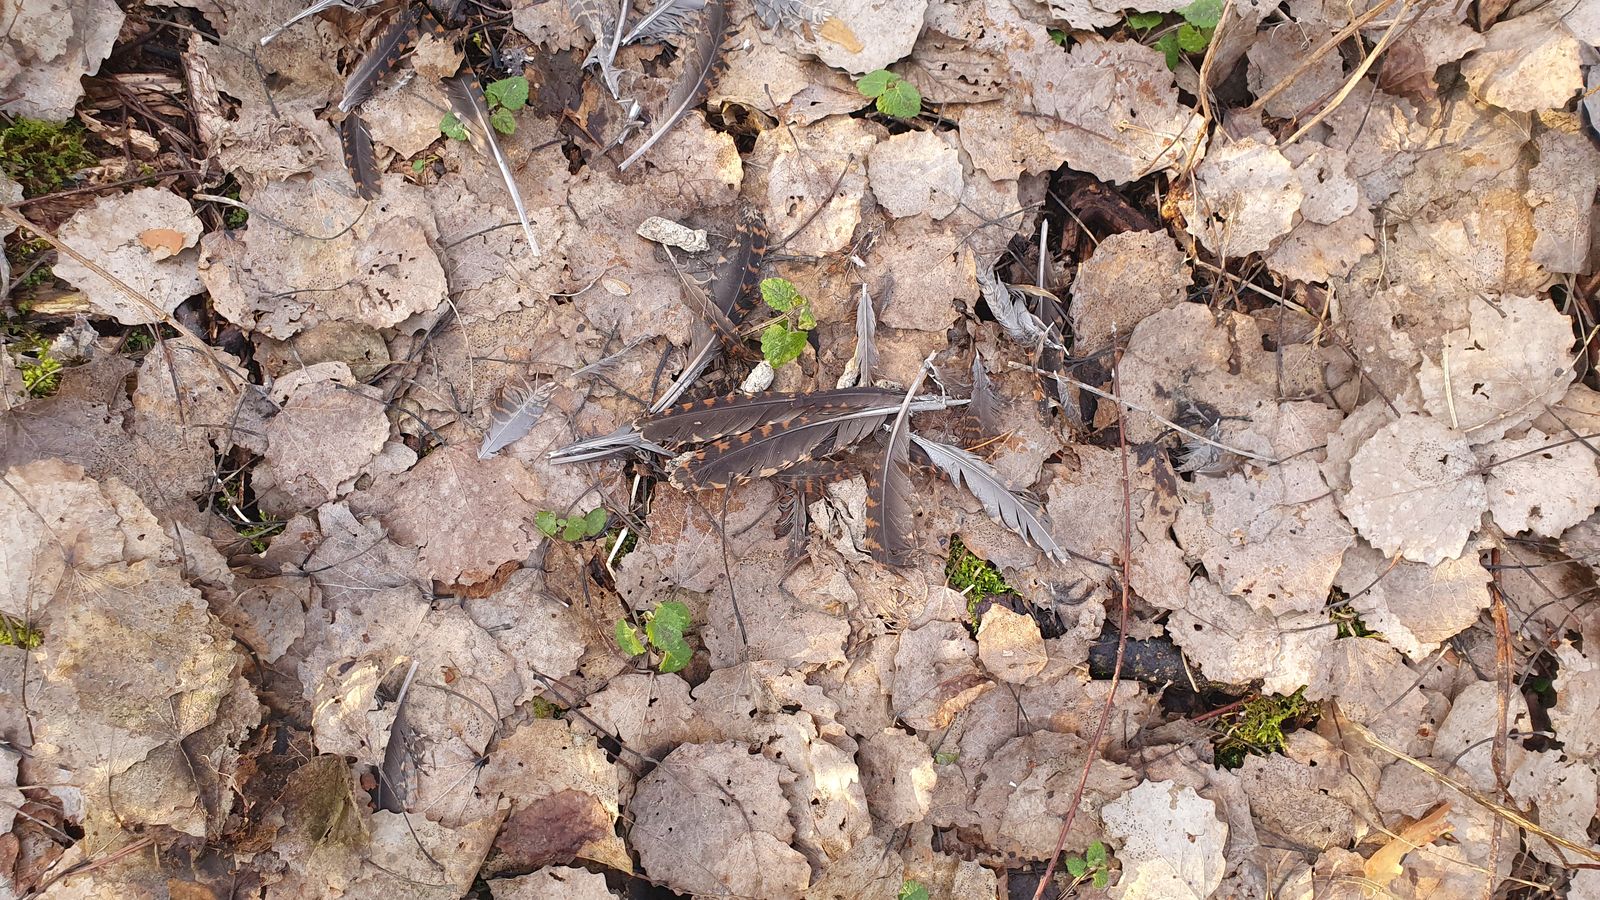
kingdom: Animalia
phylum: Chordata
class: Aves
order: Charadriiformes
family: Scolopacidae
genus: Scolopax
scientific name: Scolopax rusticola
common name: Eurasian woodcock
